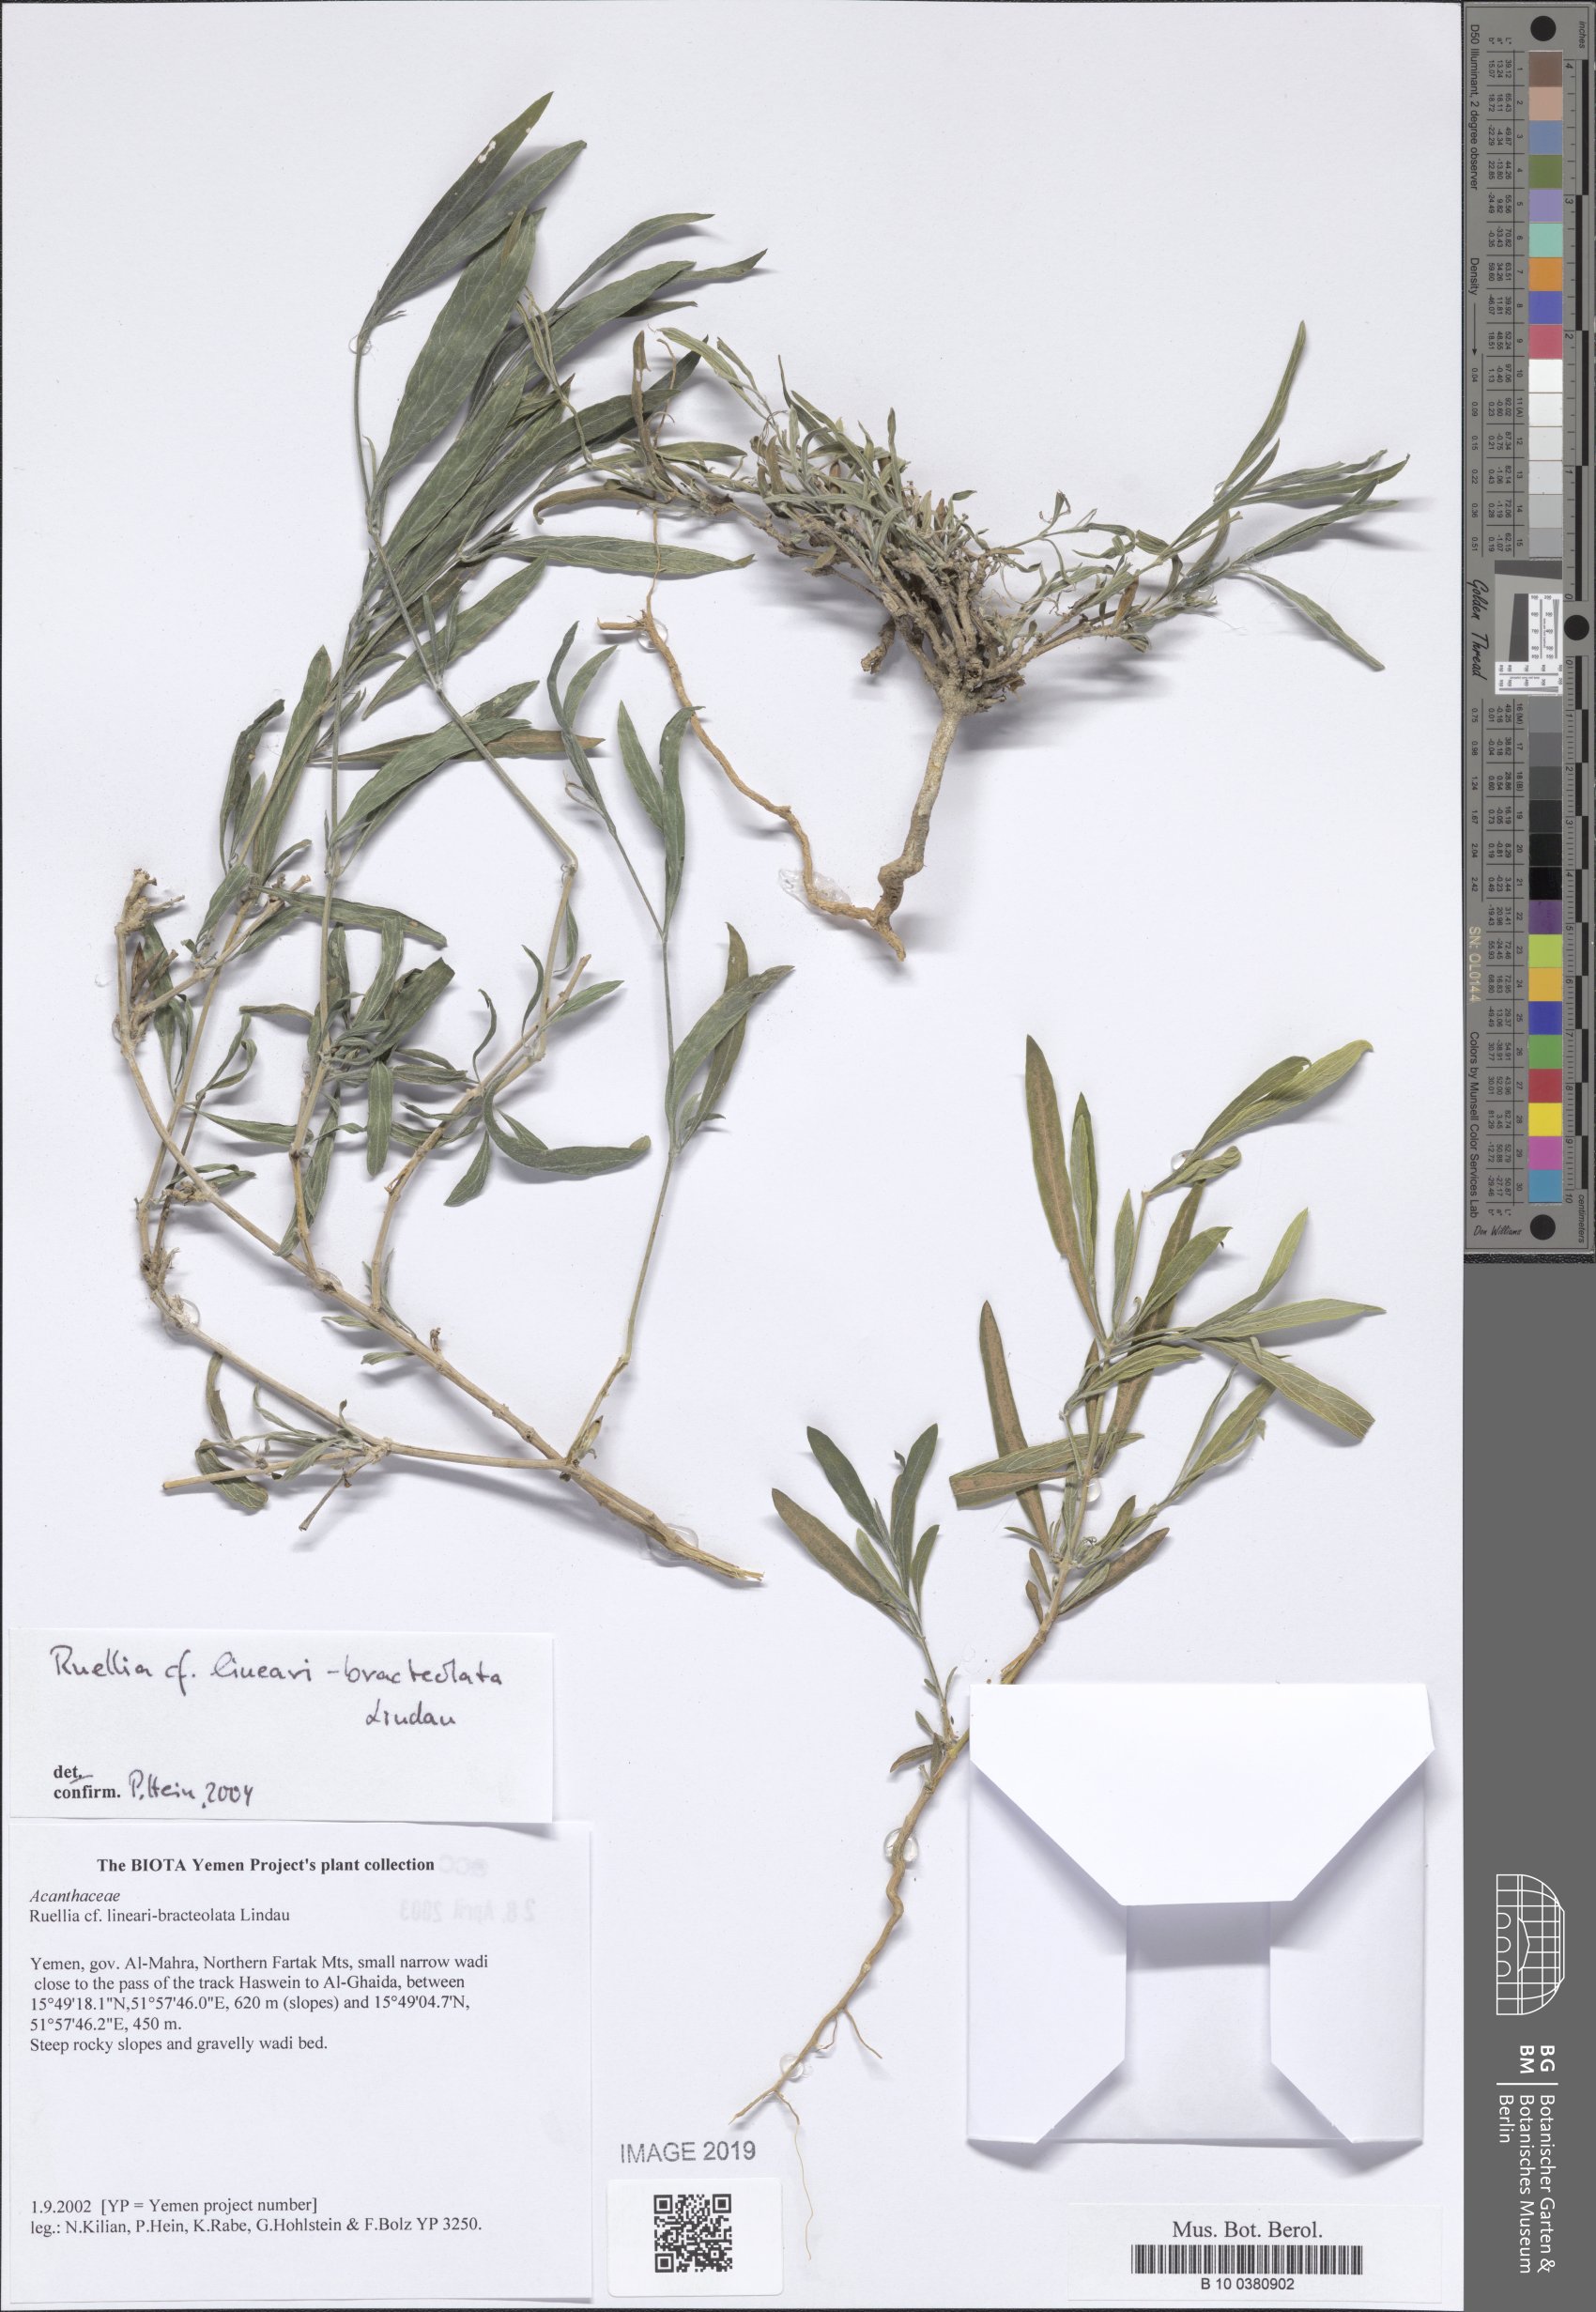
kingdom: Plantae
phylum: Tracheophyta
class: Magnoliopsida
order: Lamiales
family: Acanthaceae
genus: Ruellia
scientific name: Ruellia linearibracteolata
